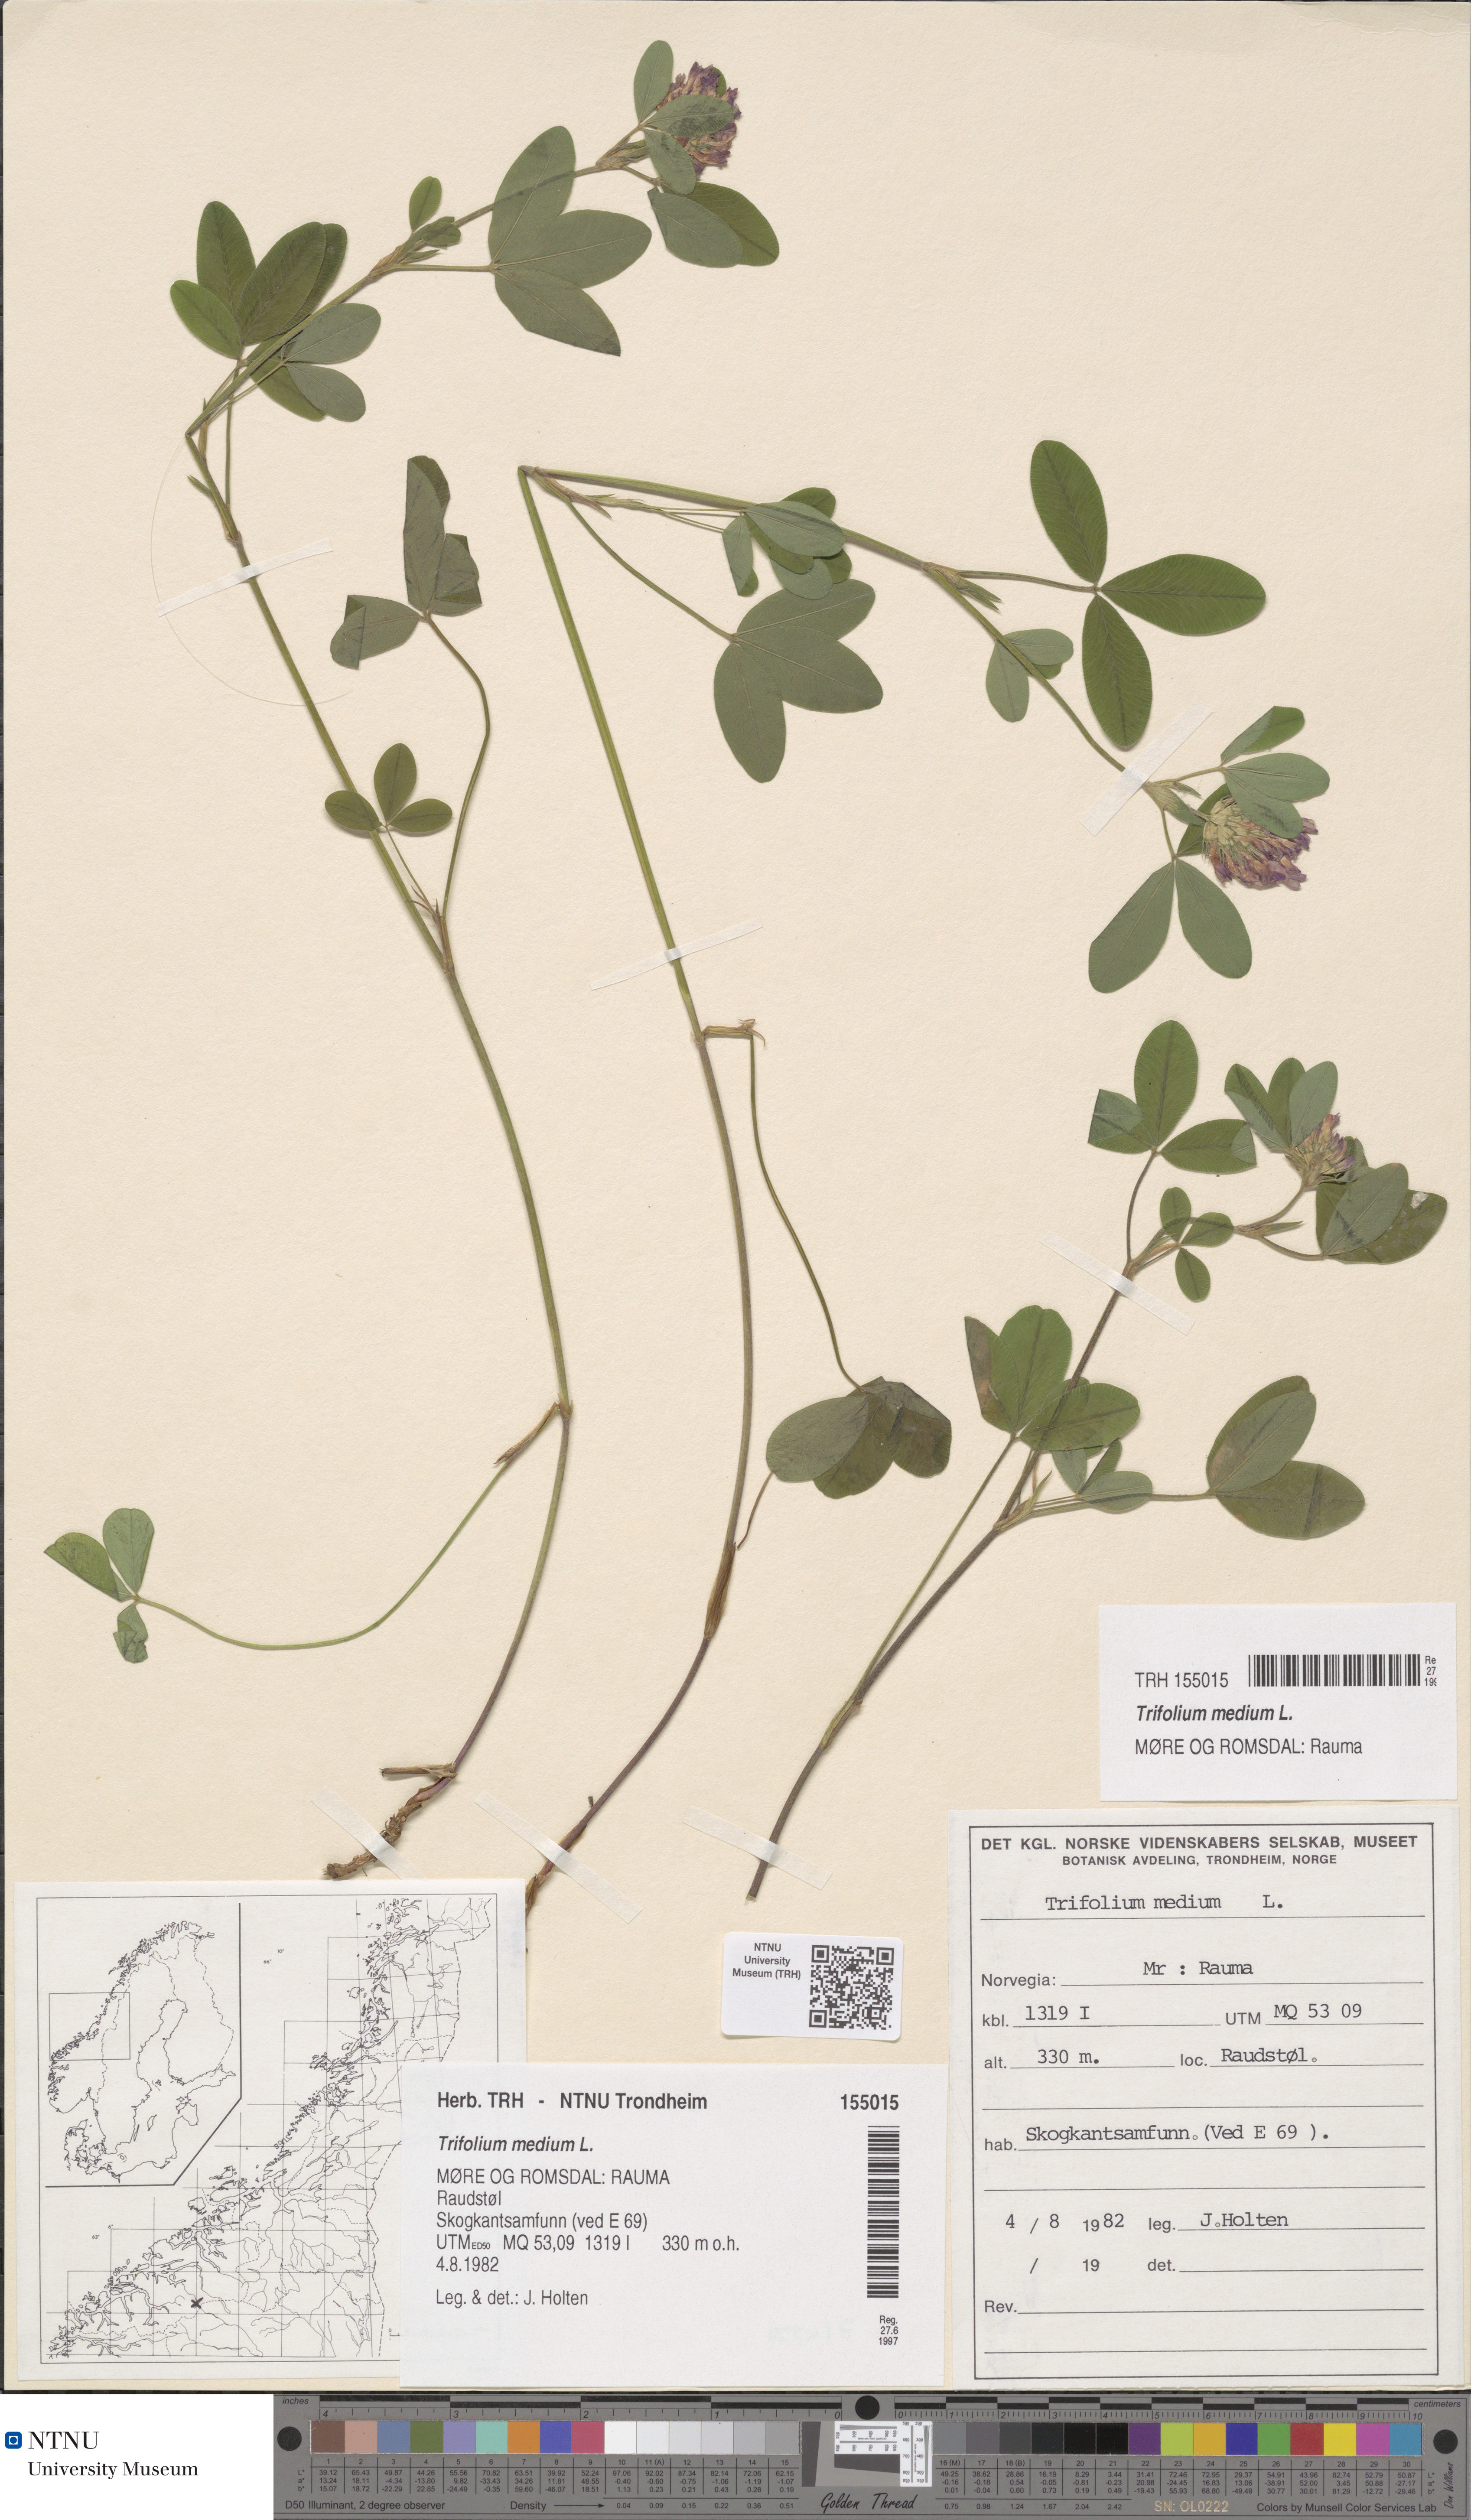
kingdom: Plantae
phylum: Tracheophyta
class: Magnoliopsida
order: Fabales
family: Fabaceae
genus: Trifolium
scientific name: Trifolium medium
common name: Zigzag clover
